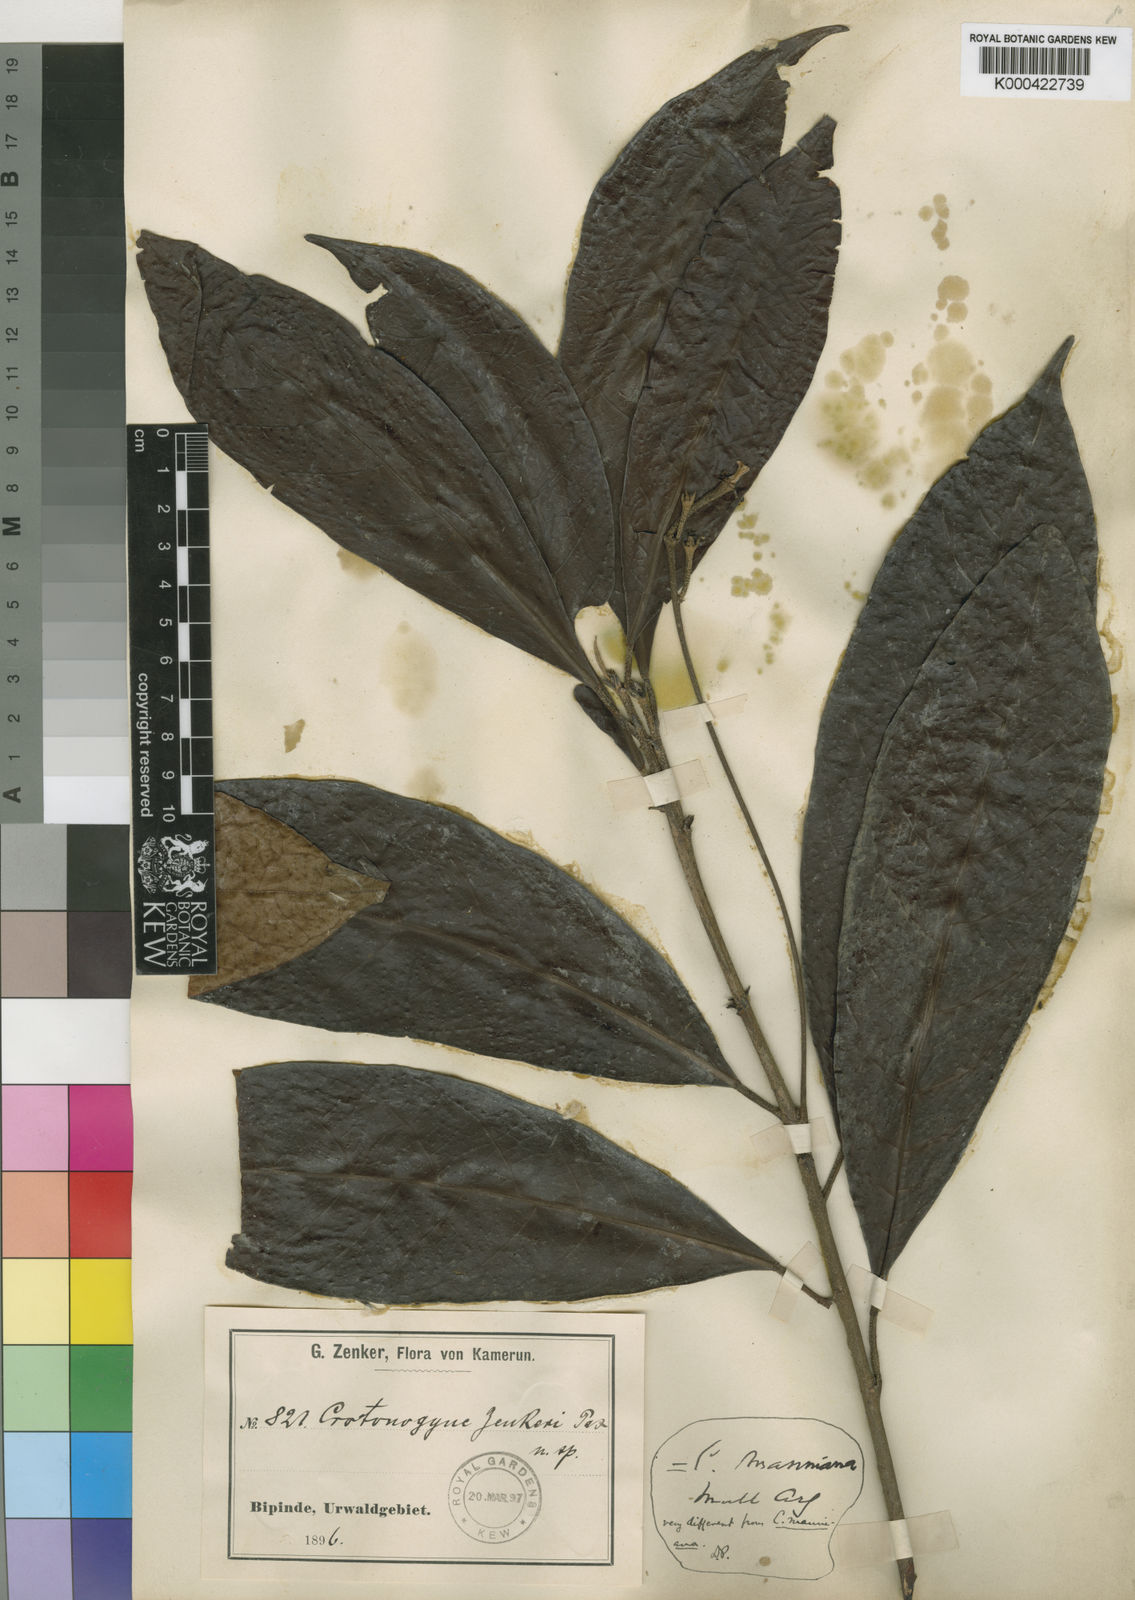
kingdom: Plantae
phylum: Tracheophyta
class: Magnoliopsida
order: Malpighiales
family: Euphorbiaceae
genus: Crotonogyne
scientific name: Crotonogyne zenkeri
